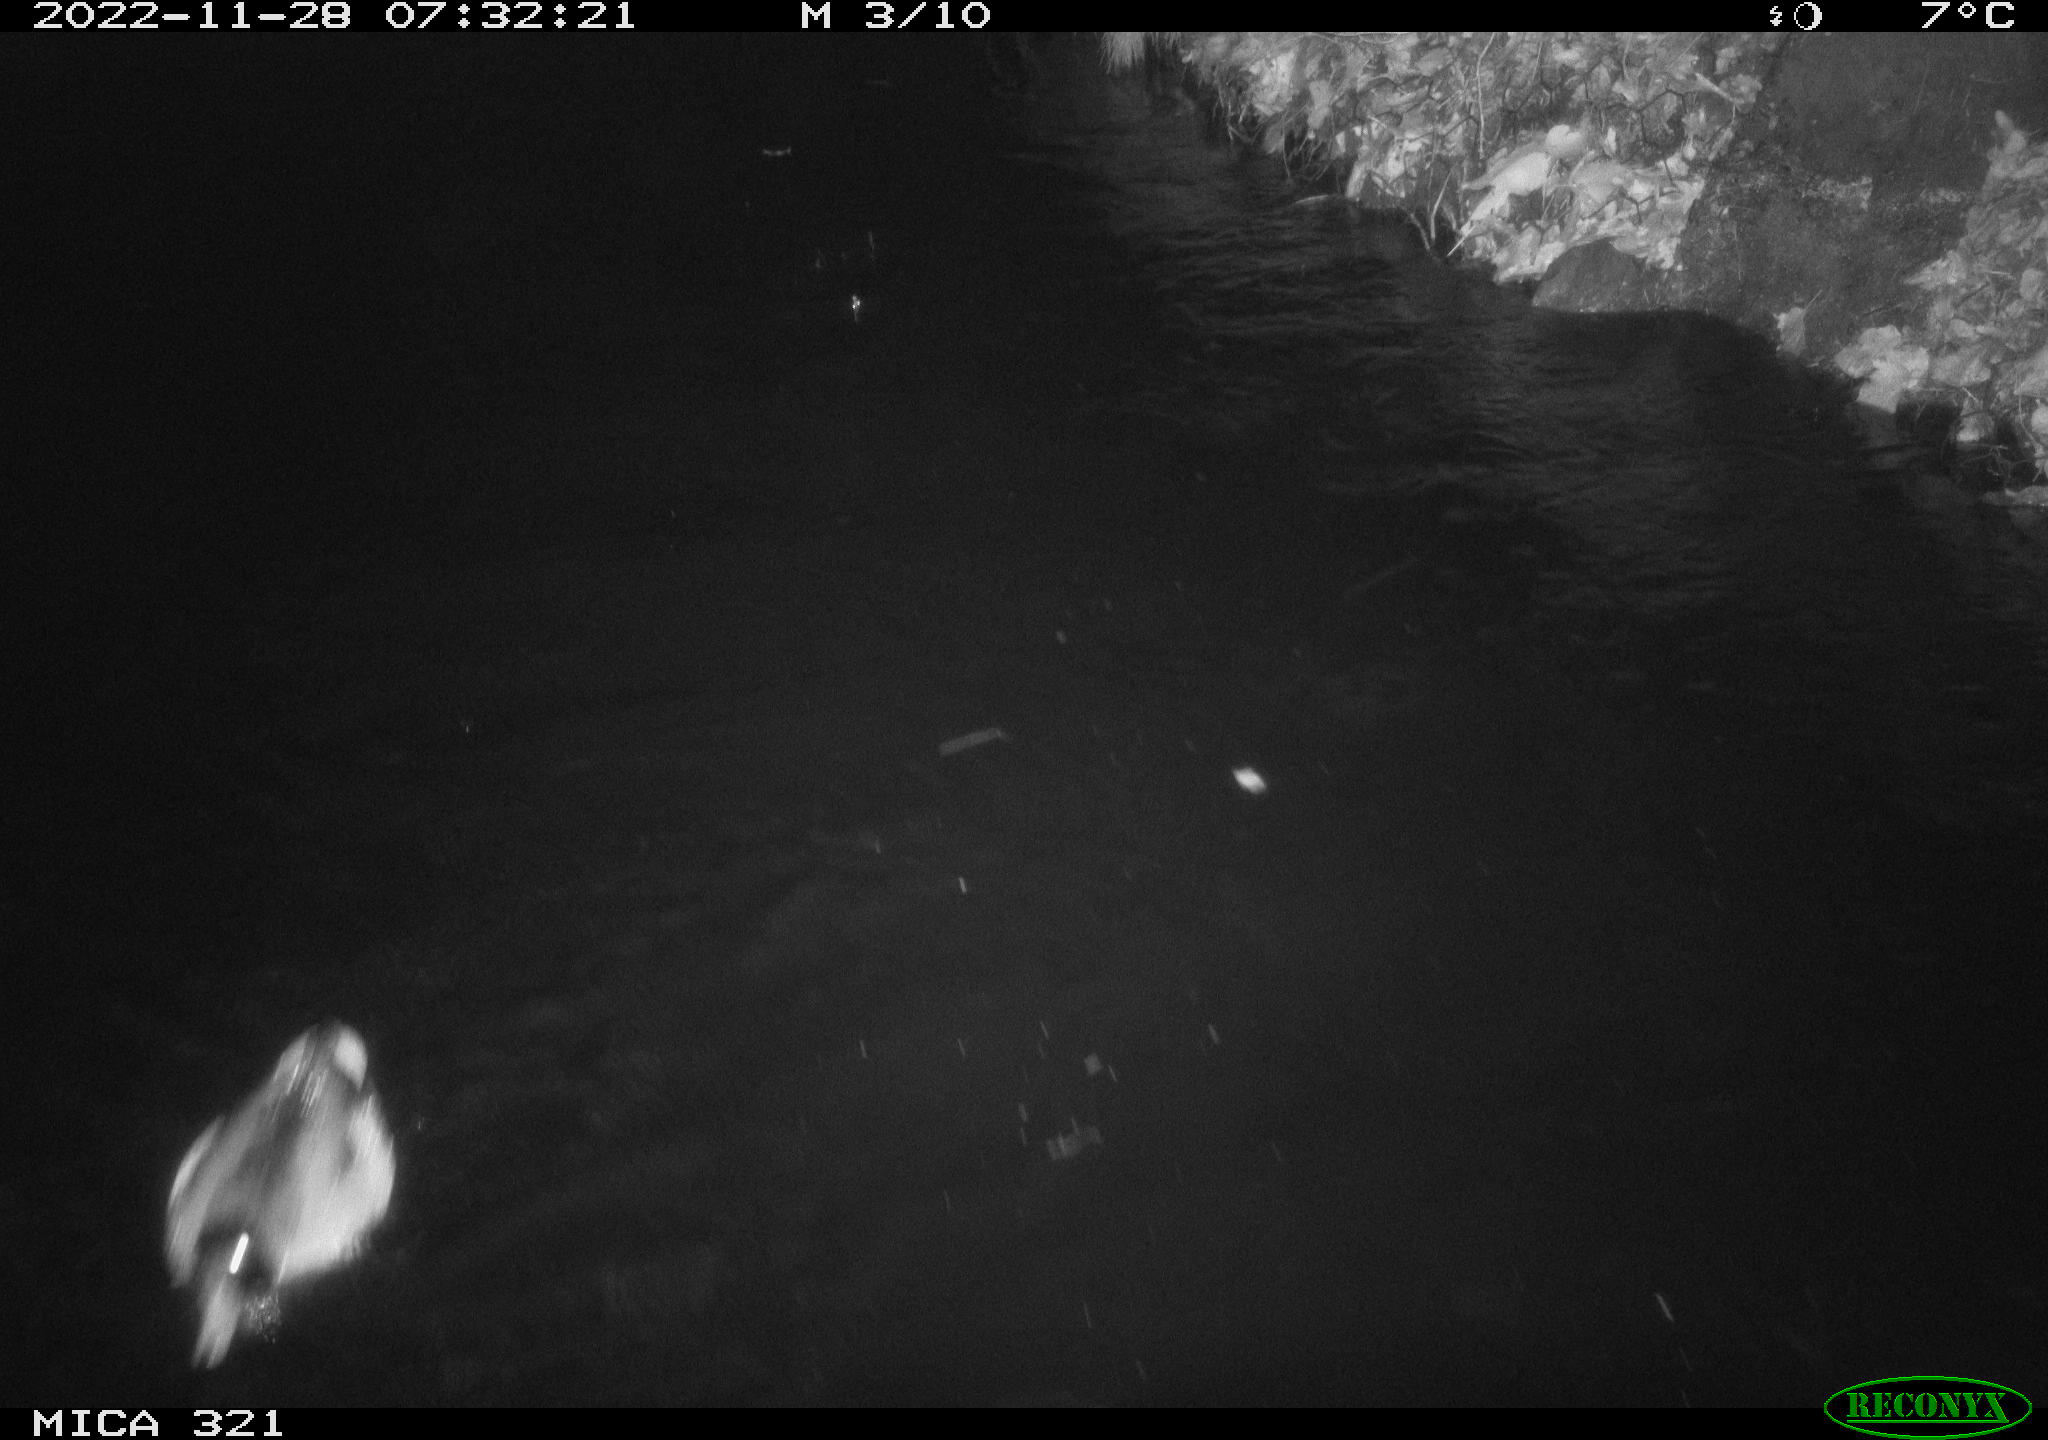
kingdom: Animalia
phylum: Chordata
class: Mammalia
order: Rodentia
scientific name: Rodentia
